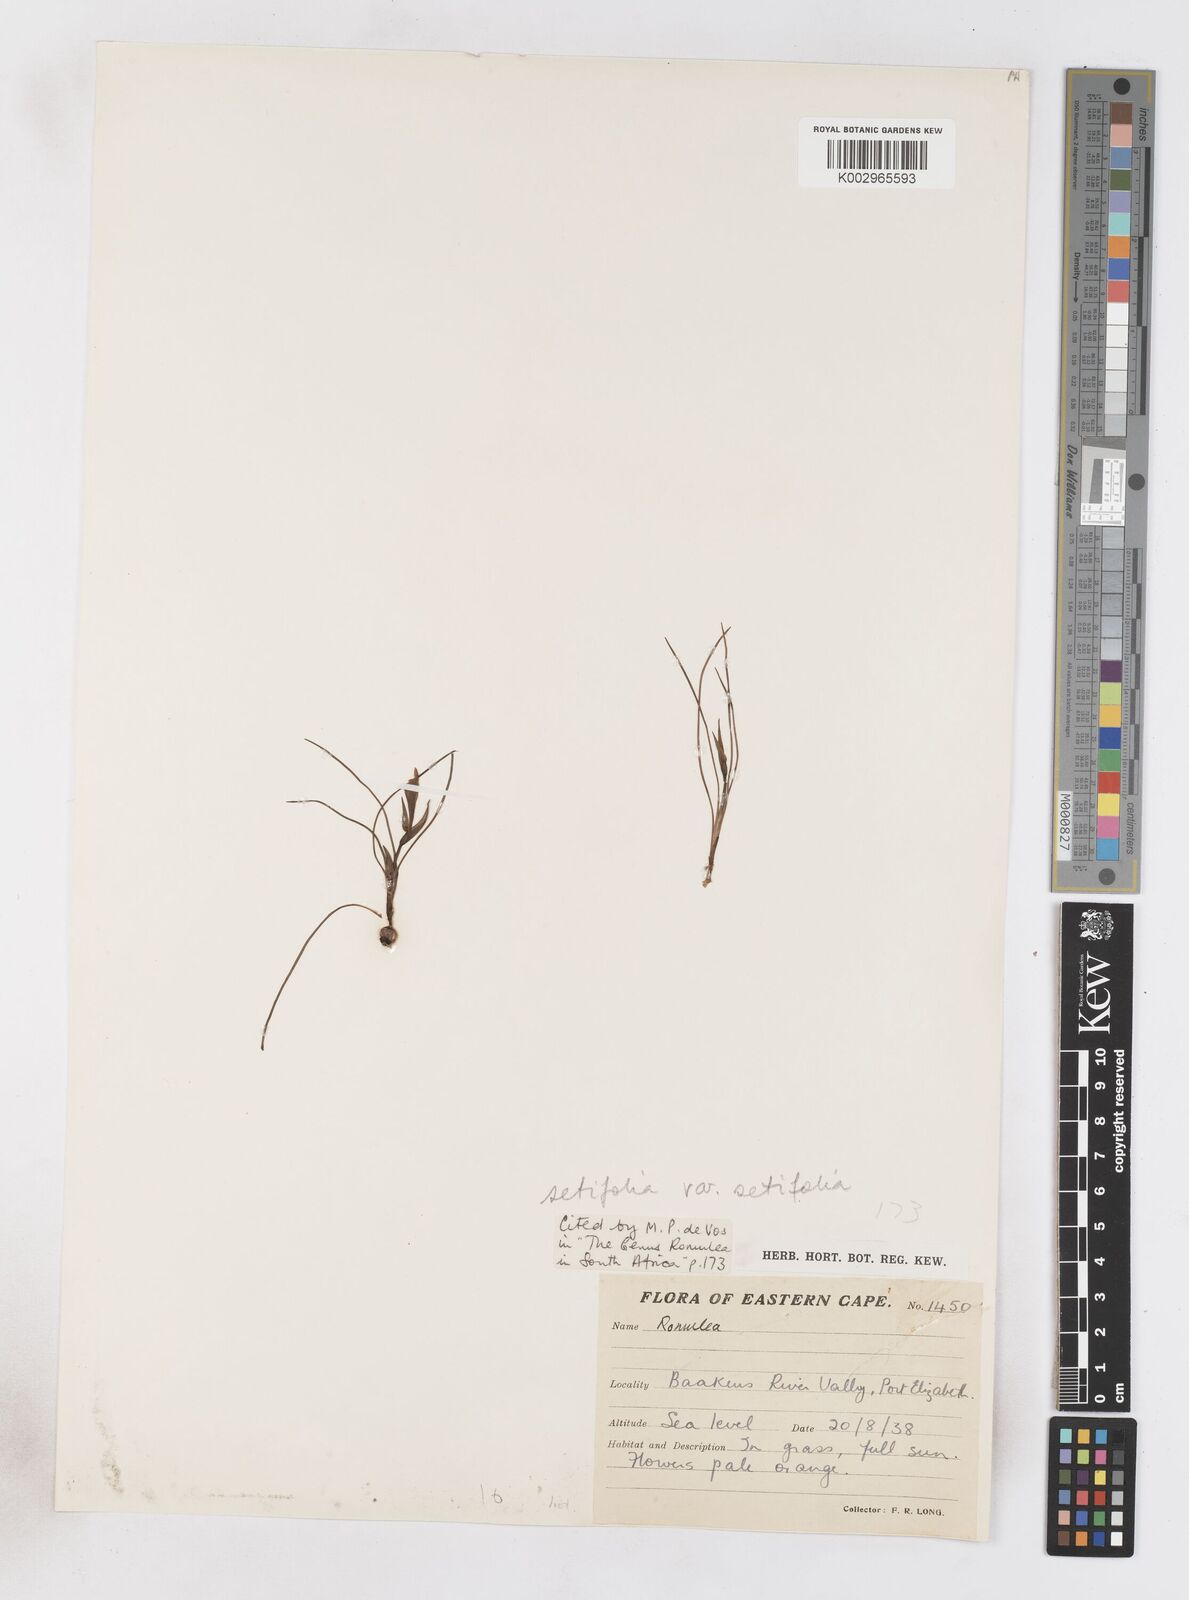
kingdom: Plantae
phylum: Tracheophyta
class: Liliopsida
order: Asparagales
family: Iridaceae
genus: Romulea
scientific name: Romulea setifolia
